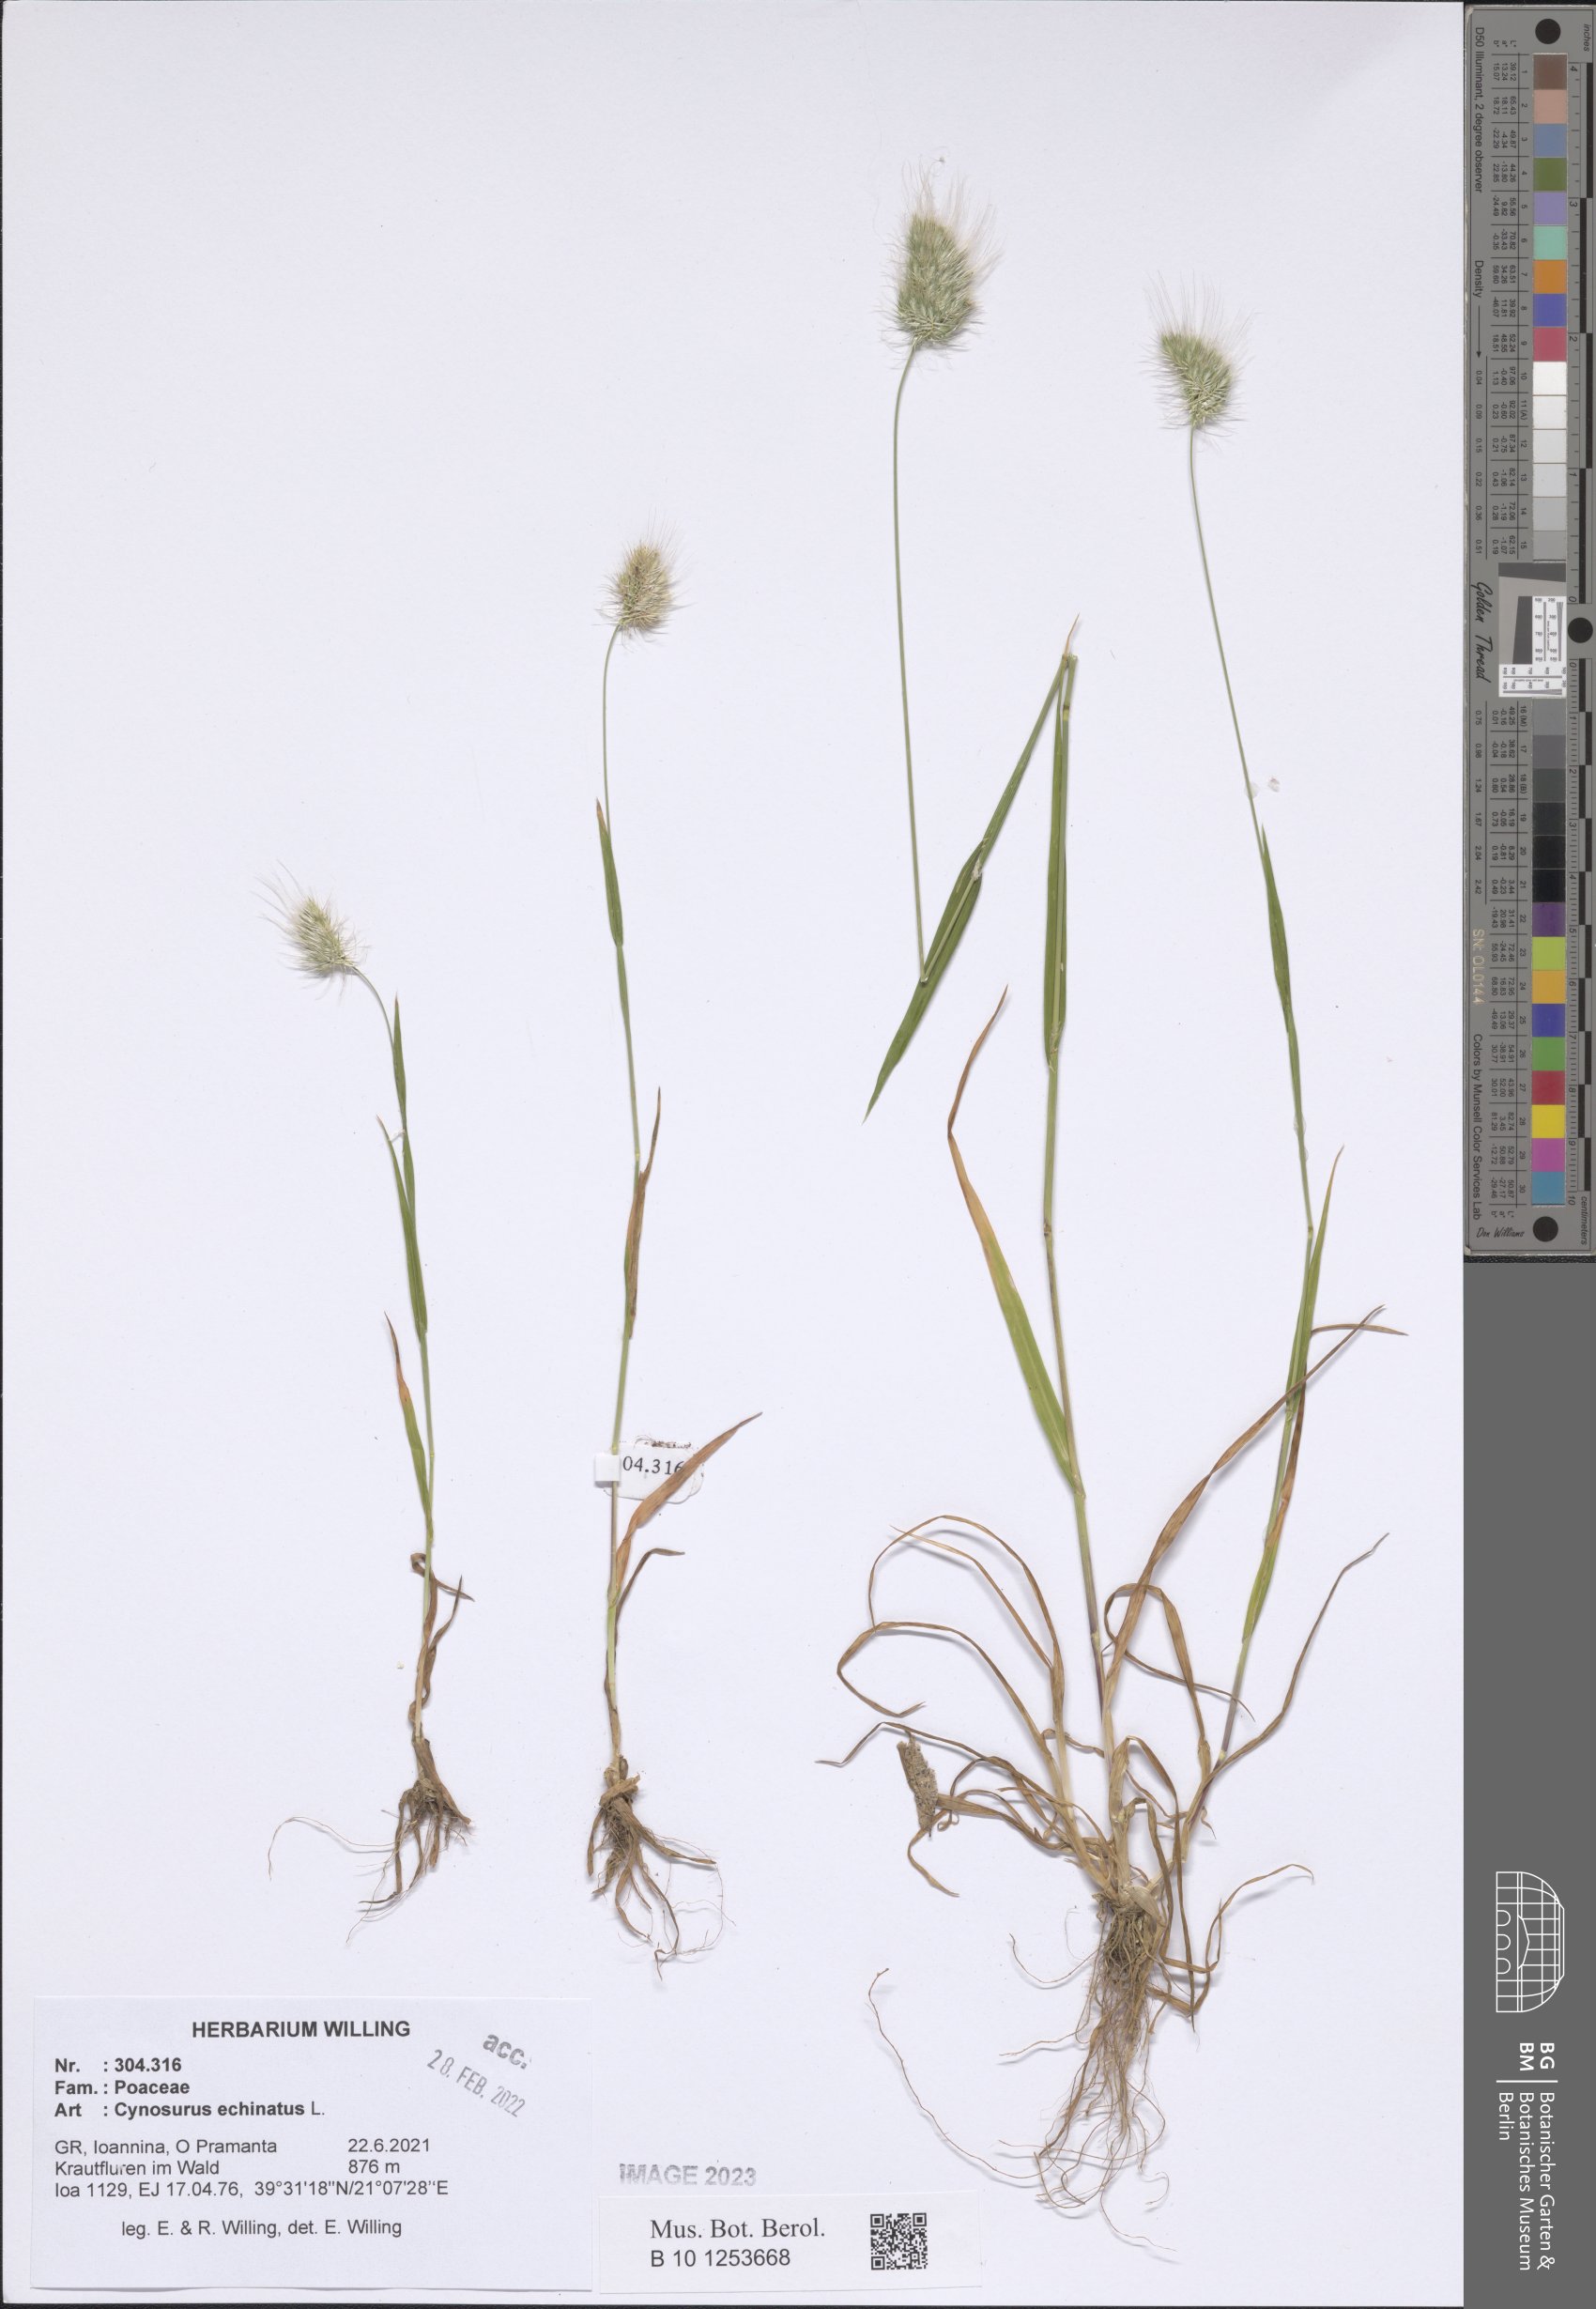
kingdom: Plantae
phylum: Tracheophyta
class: Liliopsida
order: Poales
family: Poaceae
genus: Cynosurus
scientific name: Cynosurus echinatus
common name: Rough dog's-tail
